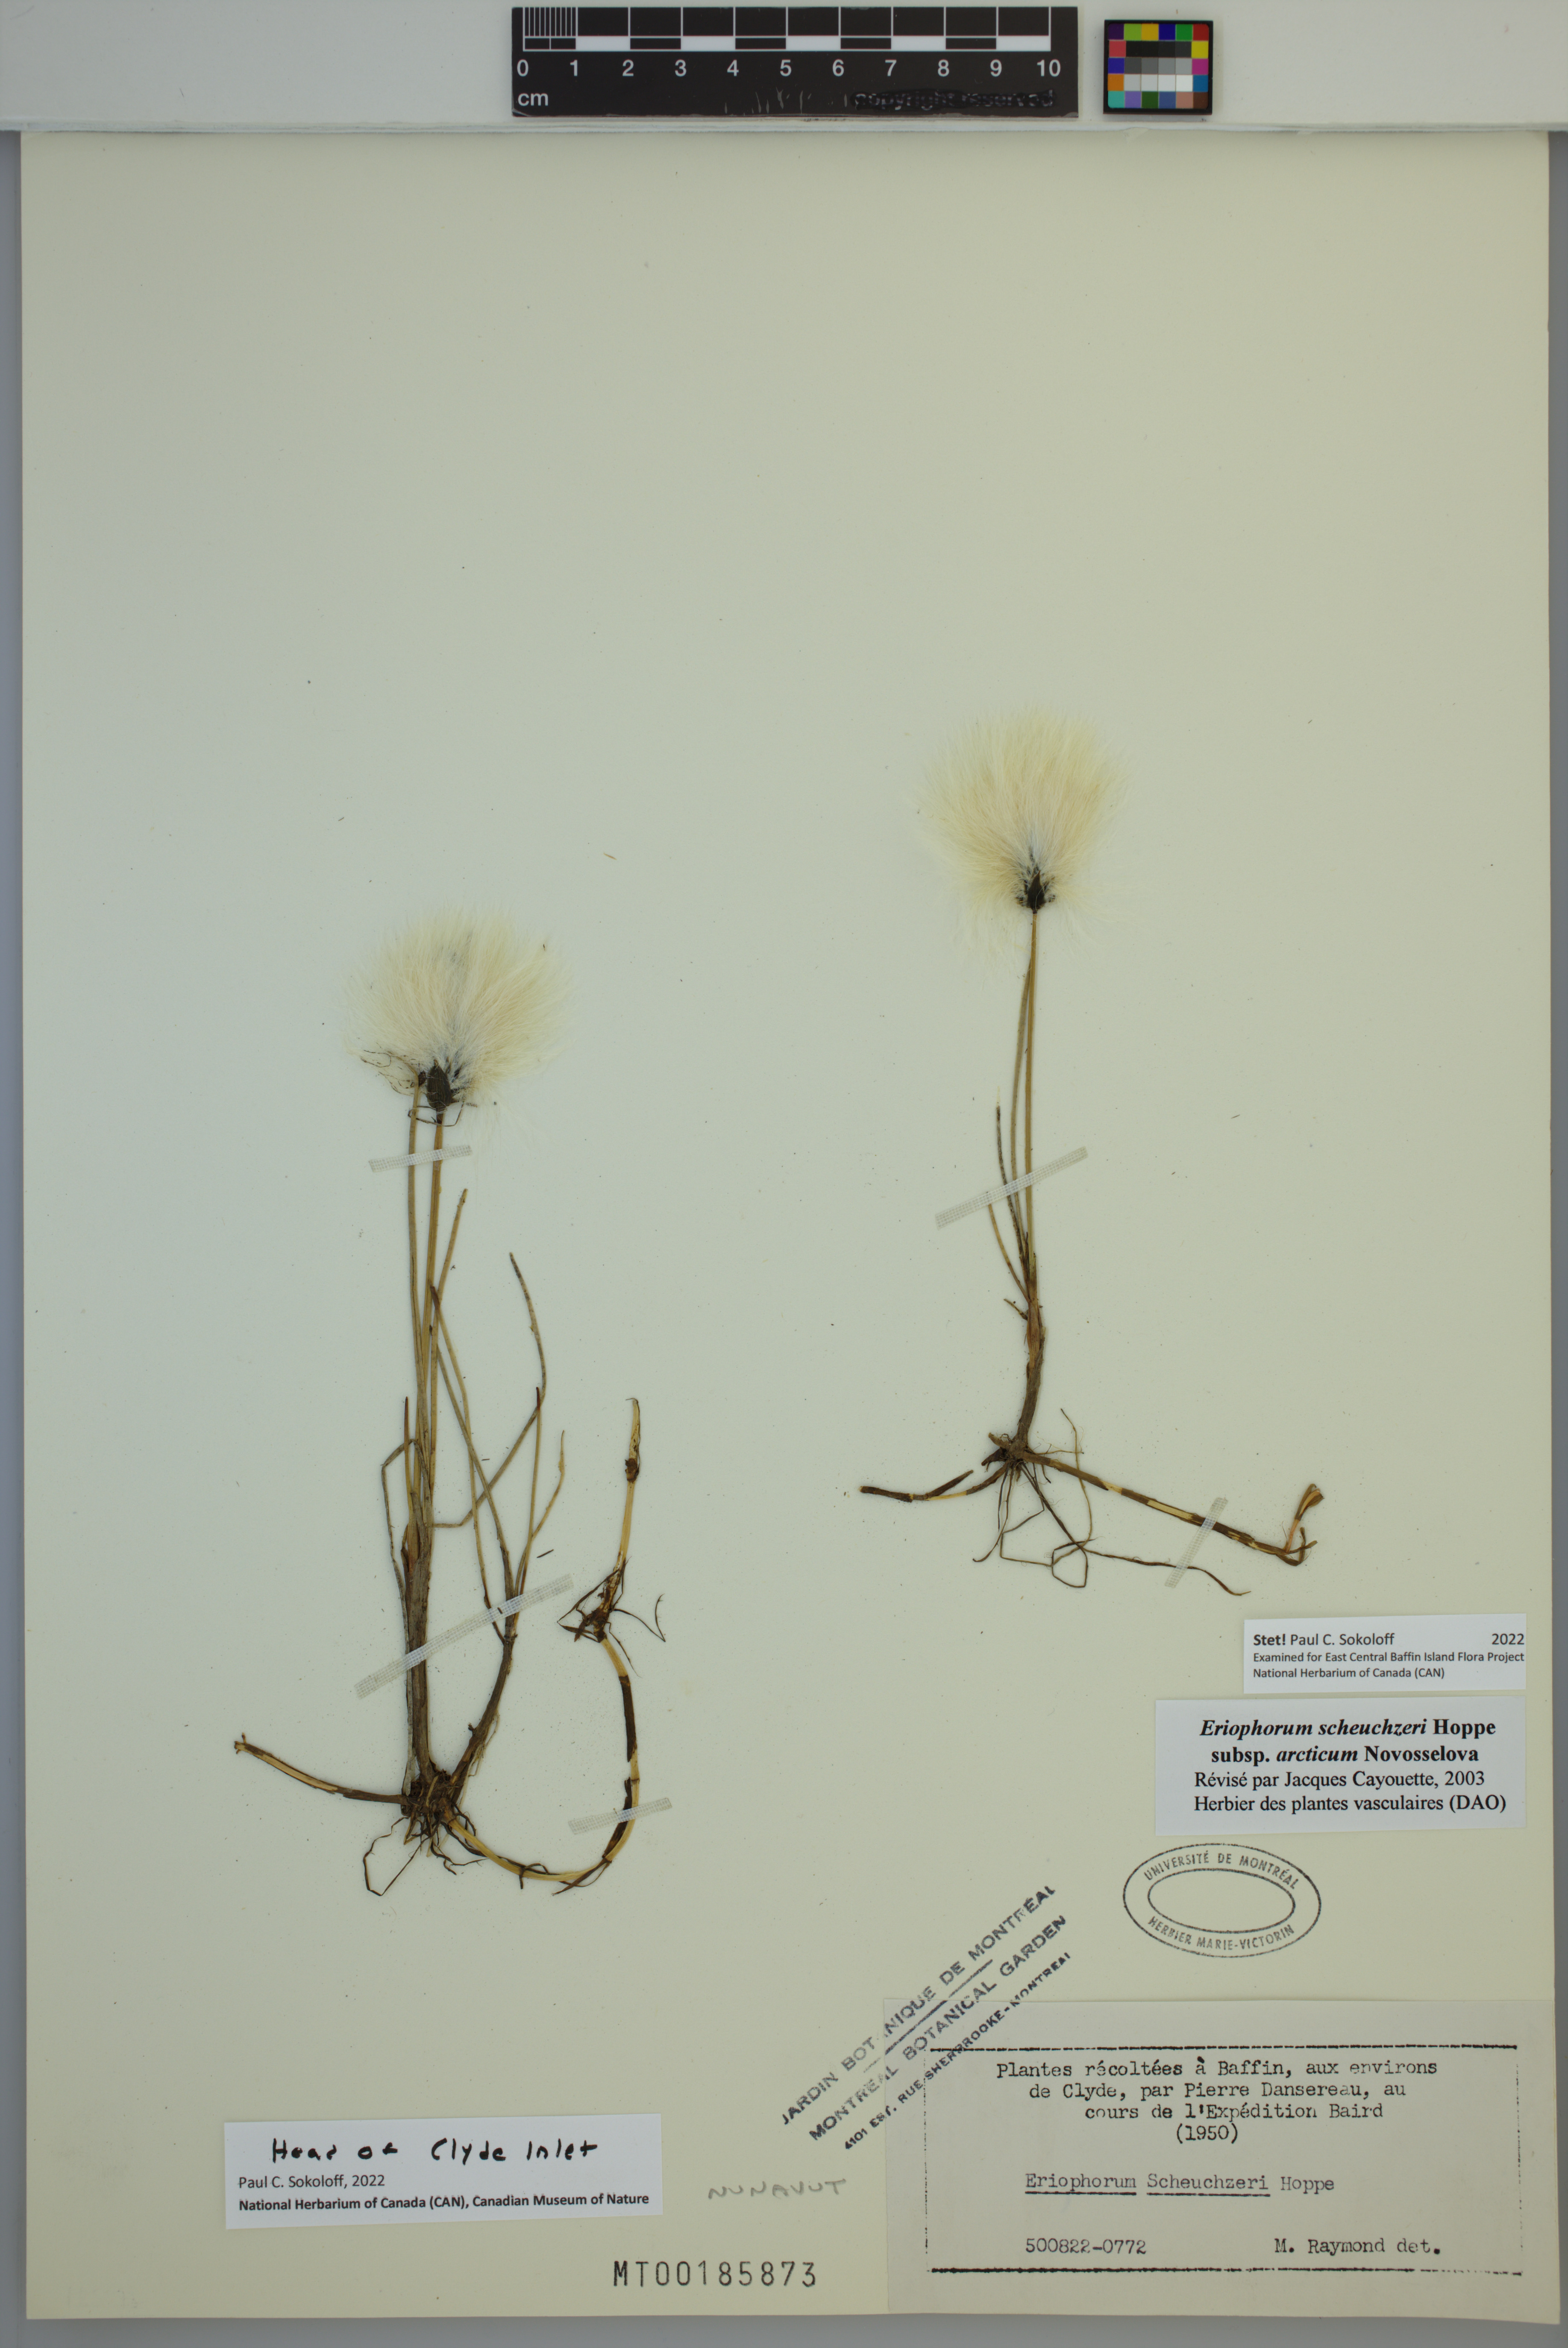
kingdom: Plantae
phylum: Tracheophyta
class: Liliopsida
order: Poales
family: Cyperaceae
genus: Eriophorum
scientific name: Eriophorum scheuchzeri
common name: Scheuchzer's cottongrass
